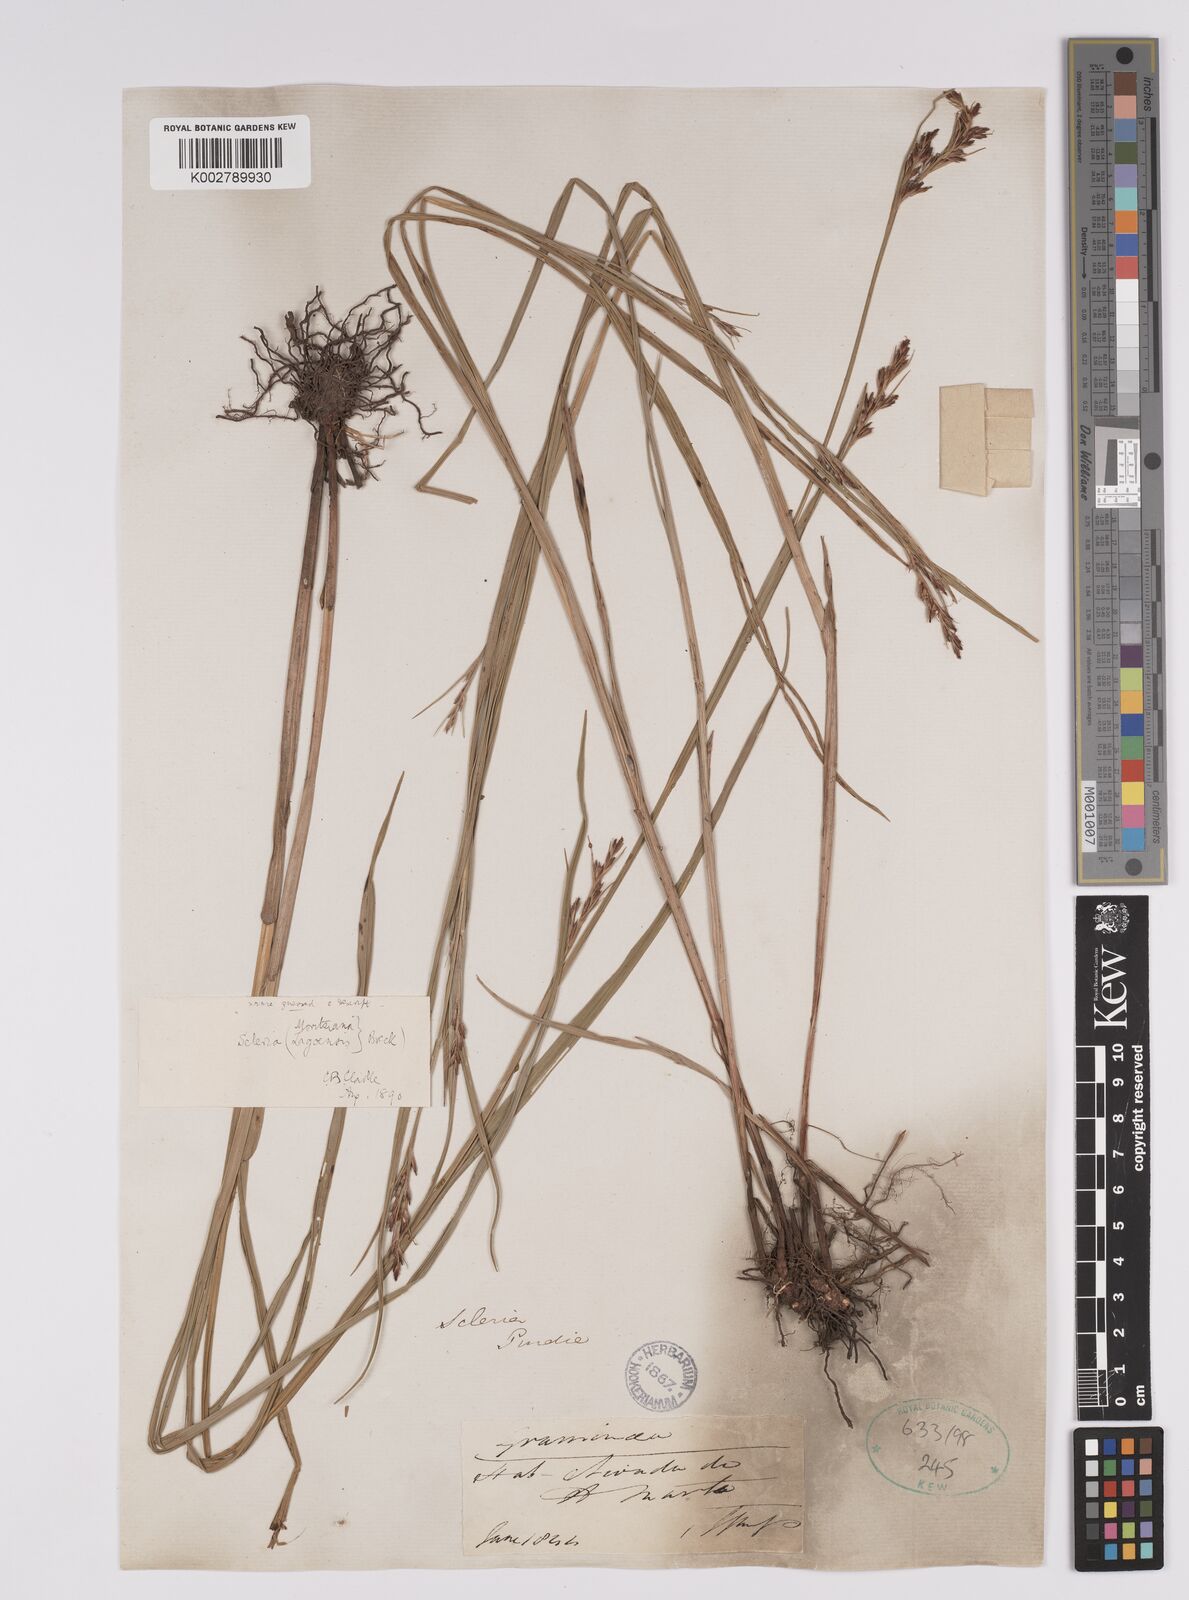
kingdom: Plantae
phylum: Tracheophyta
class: Liliopsida
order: Poales
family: Cyperaceae
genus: Scleria
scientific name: Scleria lagoensis
